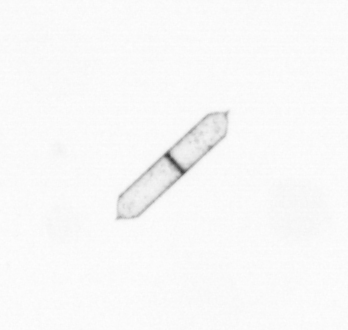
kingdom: Chromista
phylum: Ochrophyta
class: Bacillariophyceae
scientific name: Bacillariophyceae
